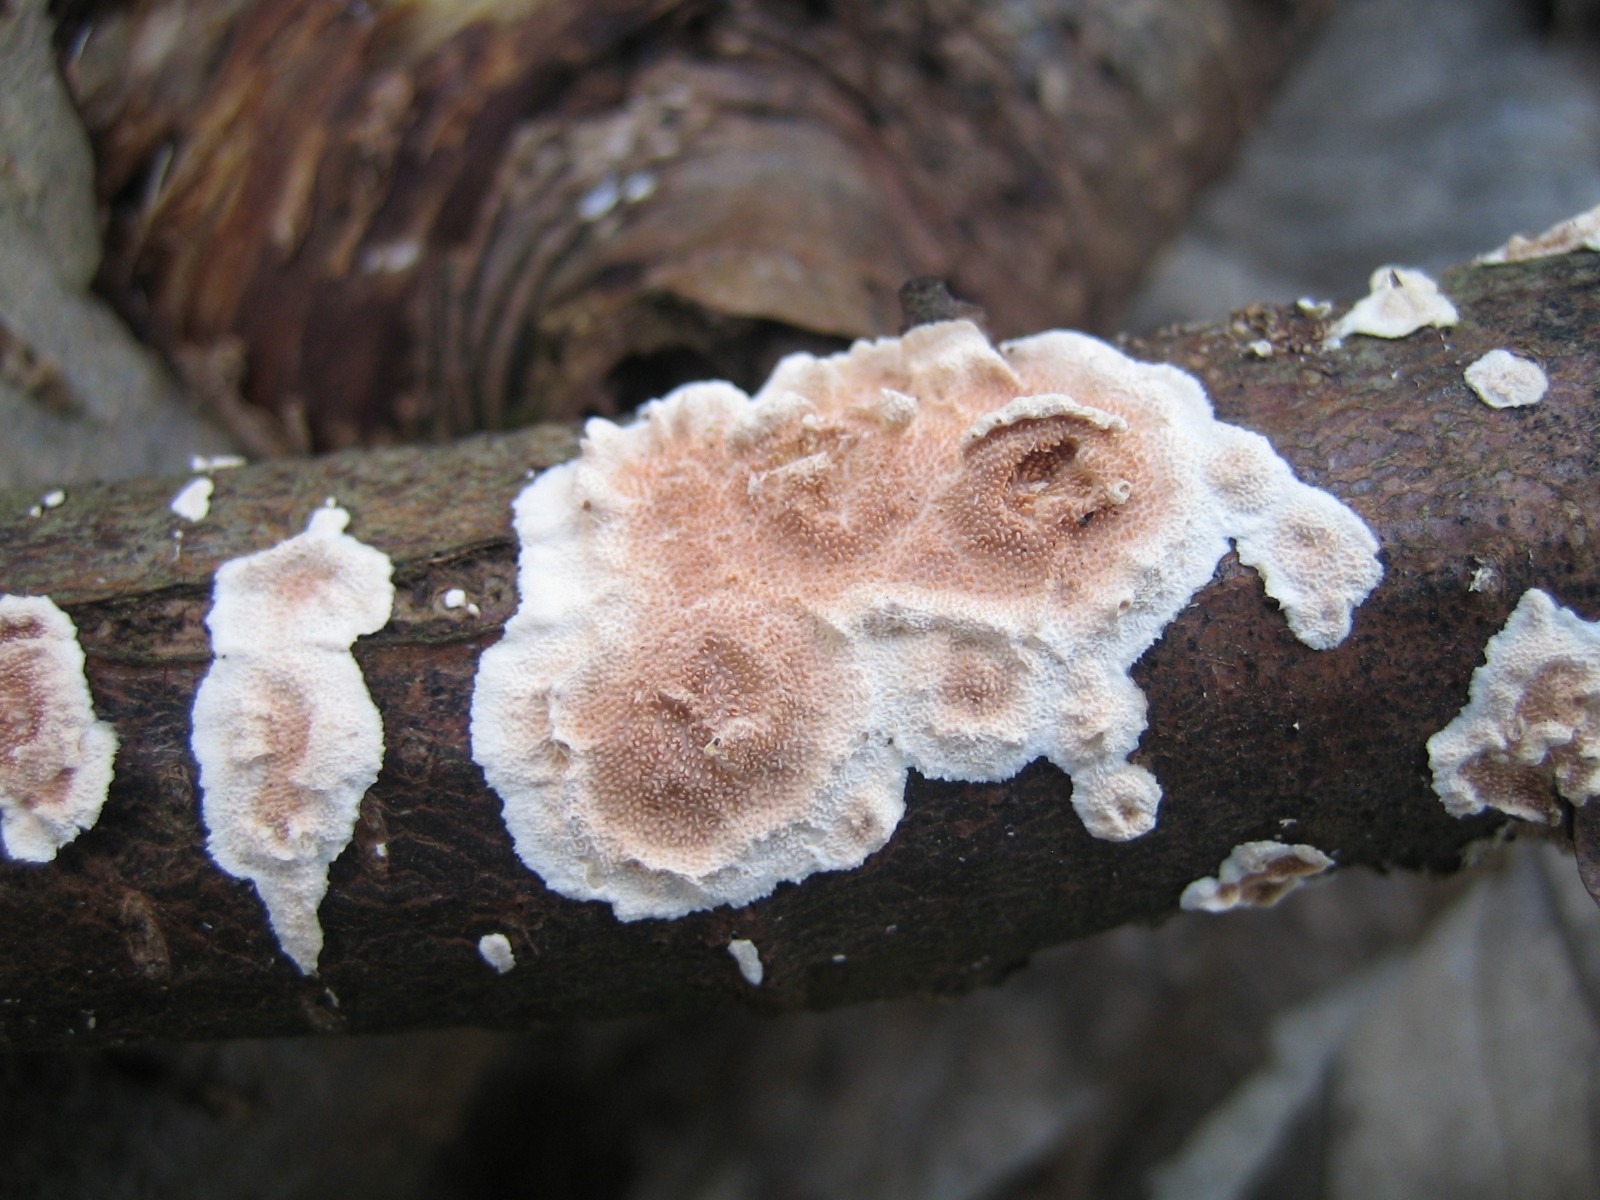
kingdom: Fungi
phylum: Basidiomycota
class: Agaricomycetes
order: Polyporales
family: Steccherinaceae
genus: Steccherinum
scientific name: Steccherinum
